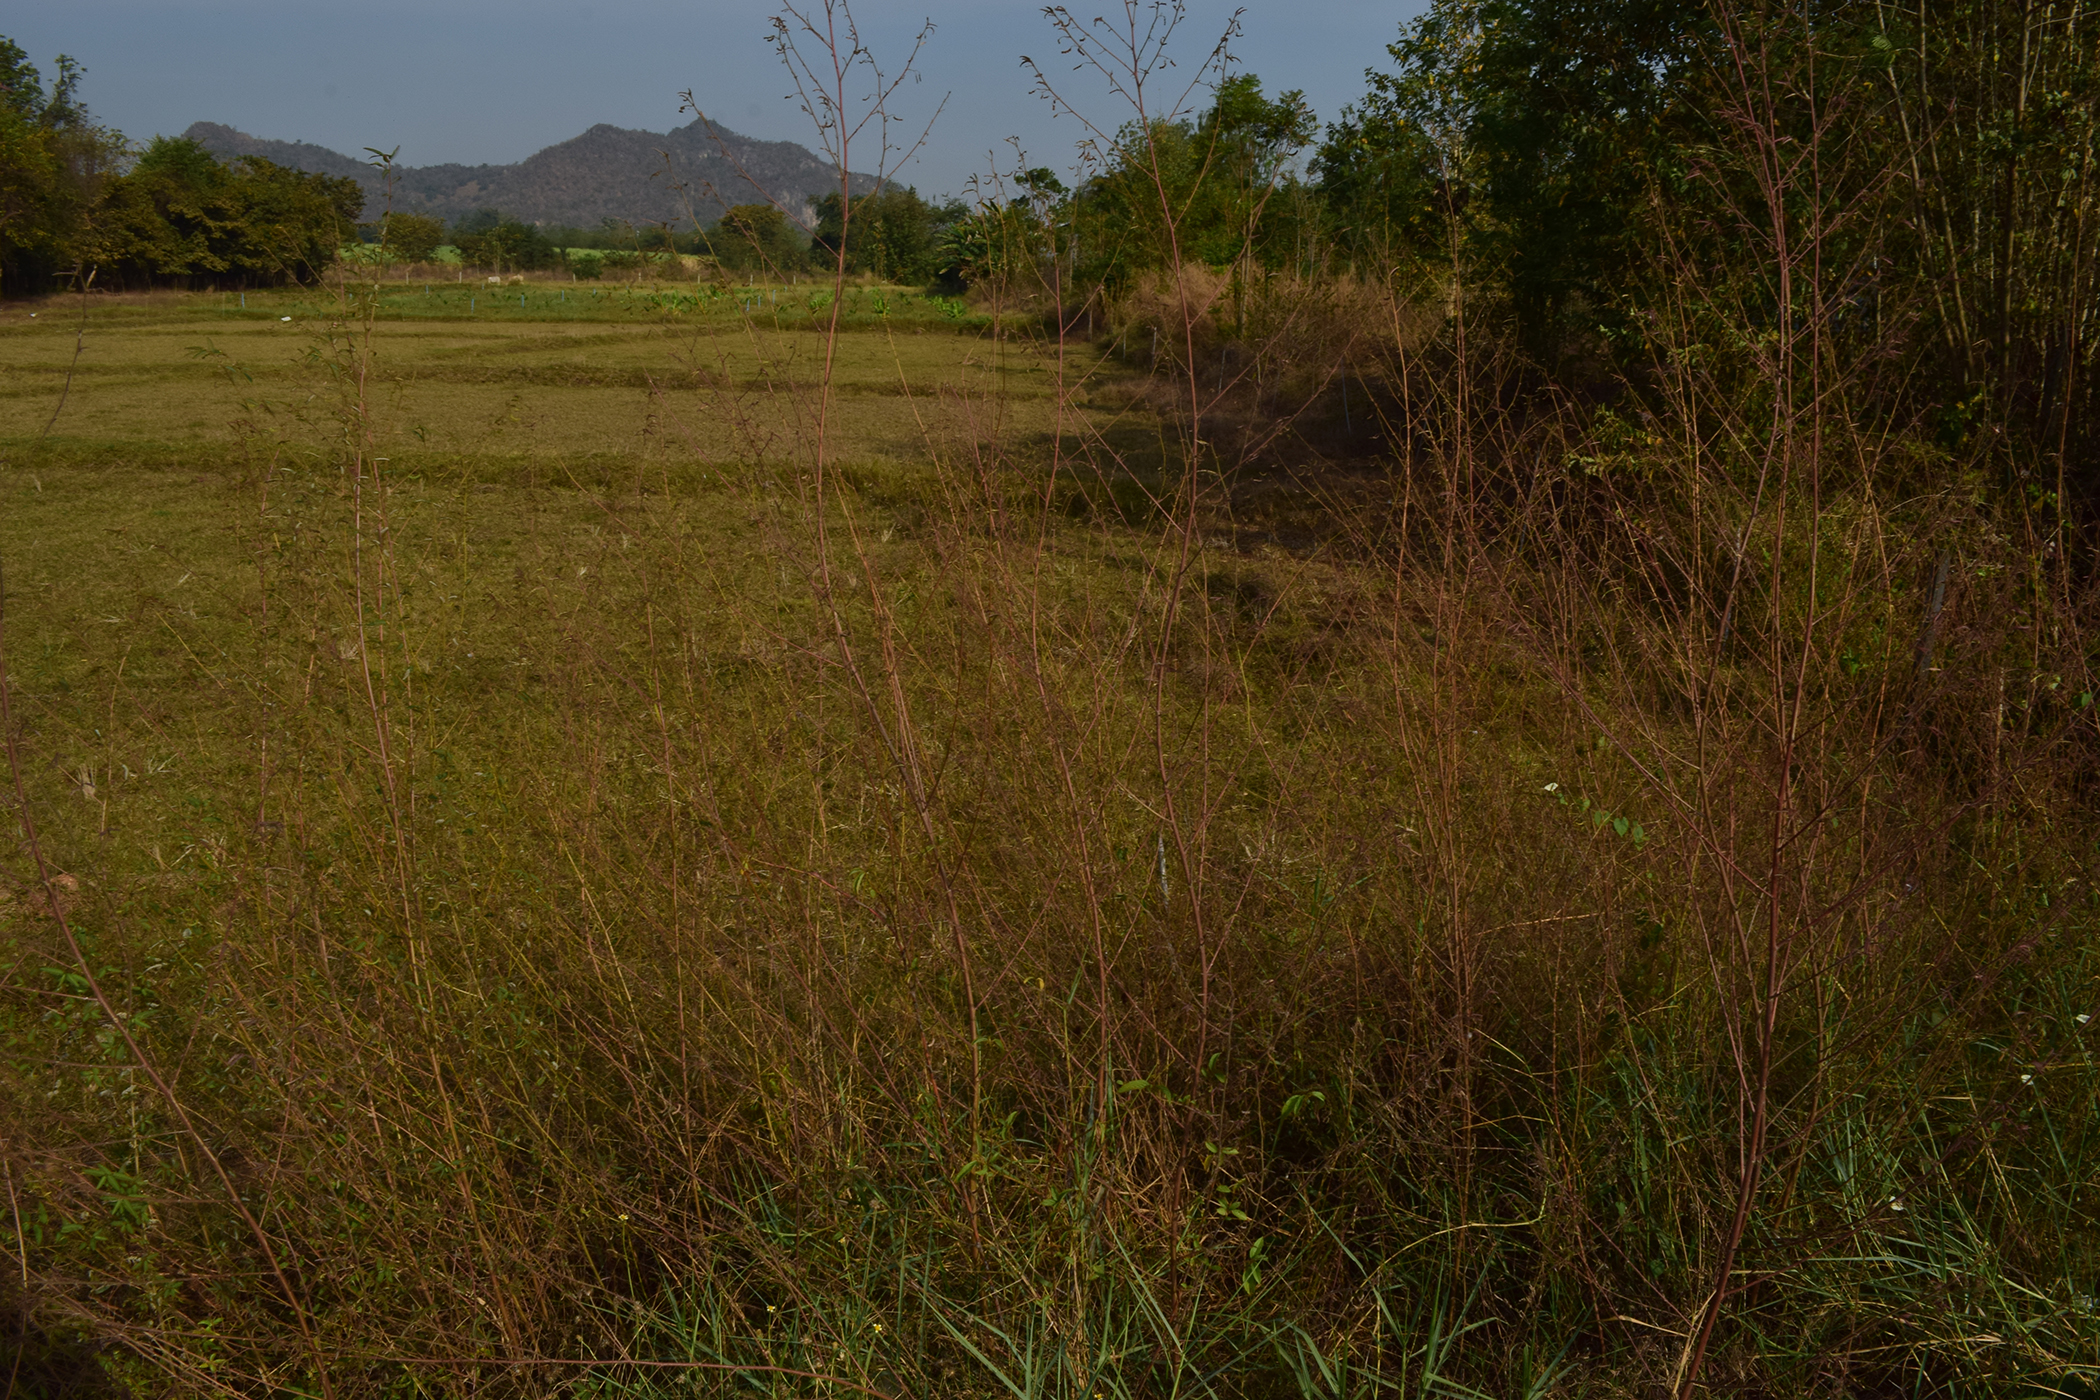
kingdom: Plantae
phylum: Tracheophyta
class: Magnoliopsida
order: Fabales
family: Fabaceae
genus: Aeschynomene
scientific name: Aeschynomene americana
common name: Joint-vetch
